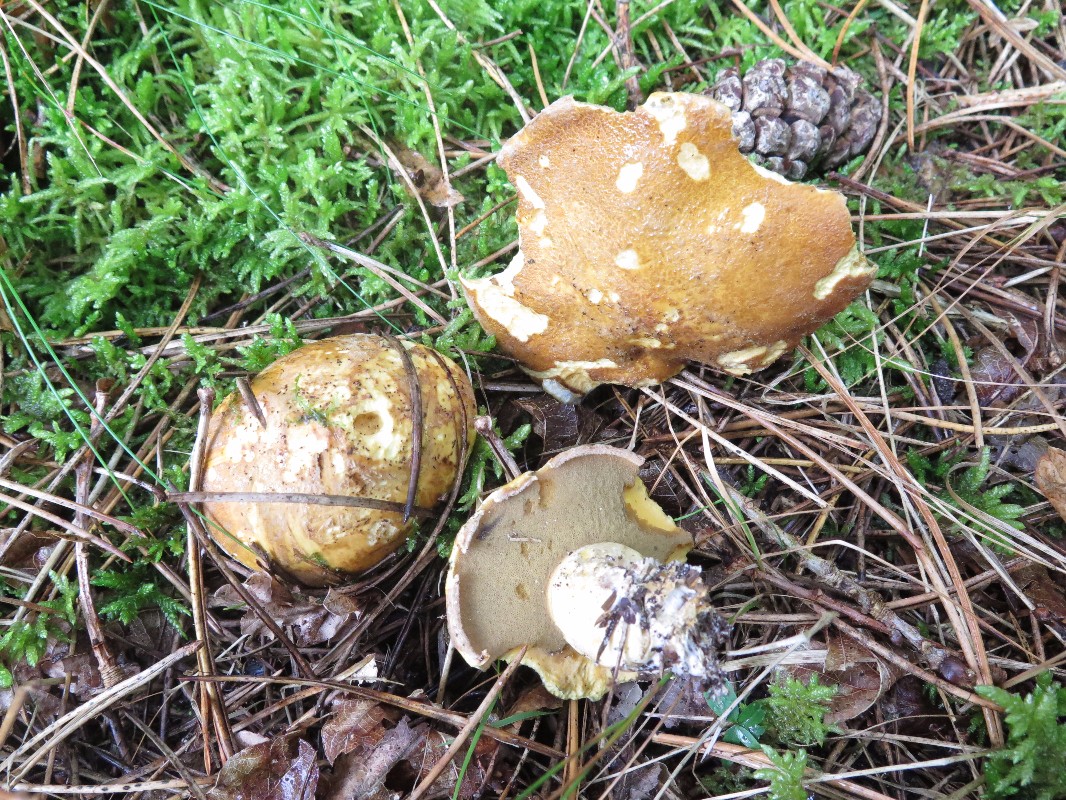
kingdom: Fungi
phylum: Basidiomycota
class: Agaricomycetes
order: Boletales
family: Suillaceae
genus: Suillus
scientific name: Suillus variegatus
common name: broget slimrørhat
